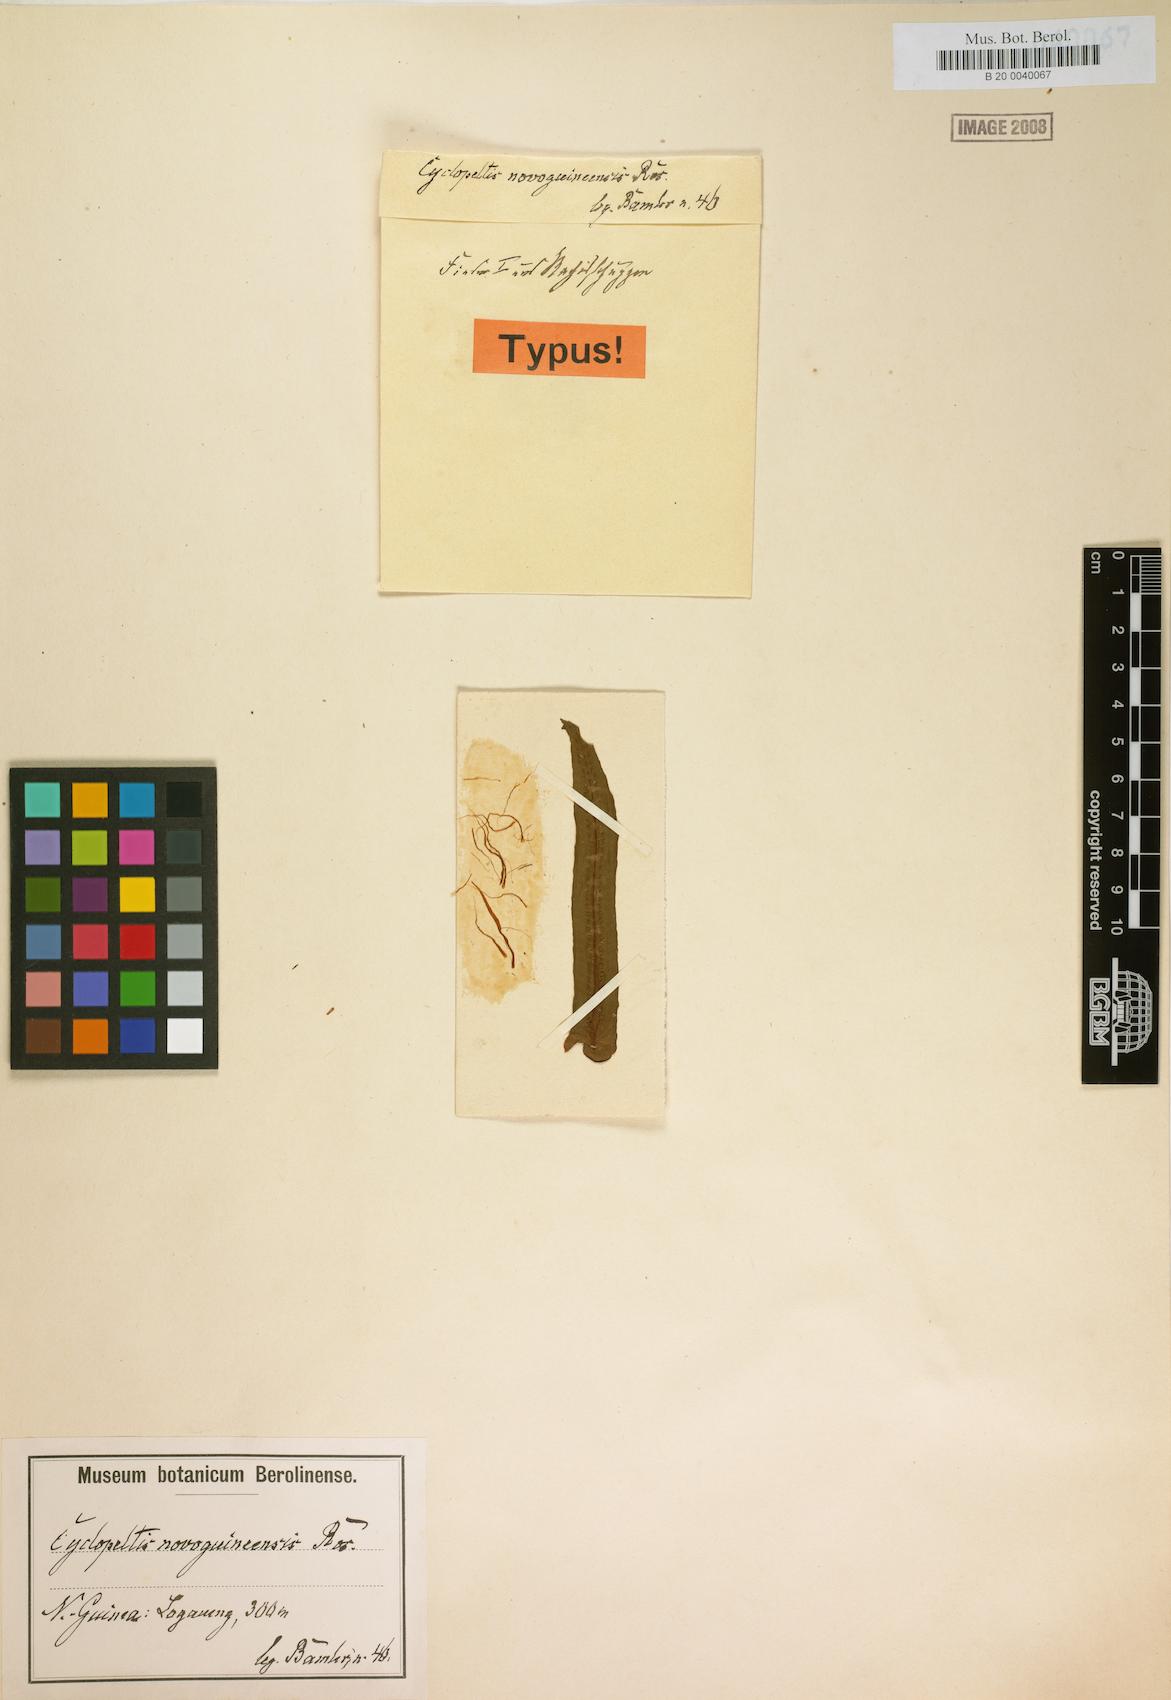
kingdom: Plantae
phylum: Tracheophyta
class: Polypodiopsida
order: Polypodiales
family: Lomariopsidaceae
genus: Cyclopeltis
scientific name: Cyclopeltis novoguineensis
